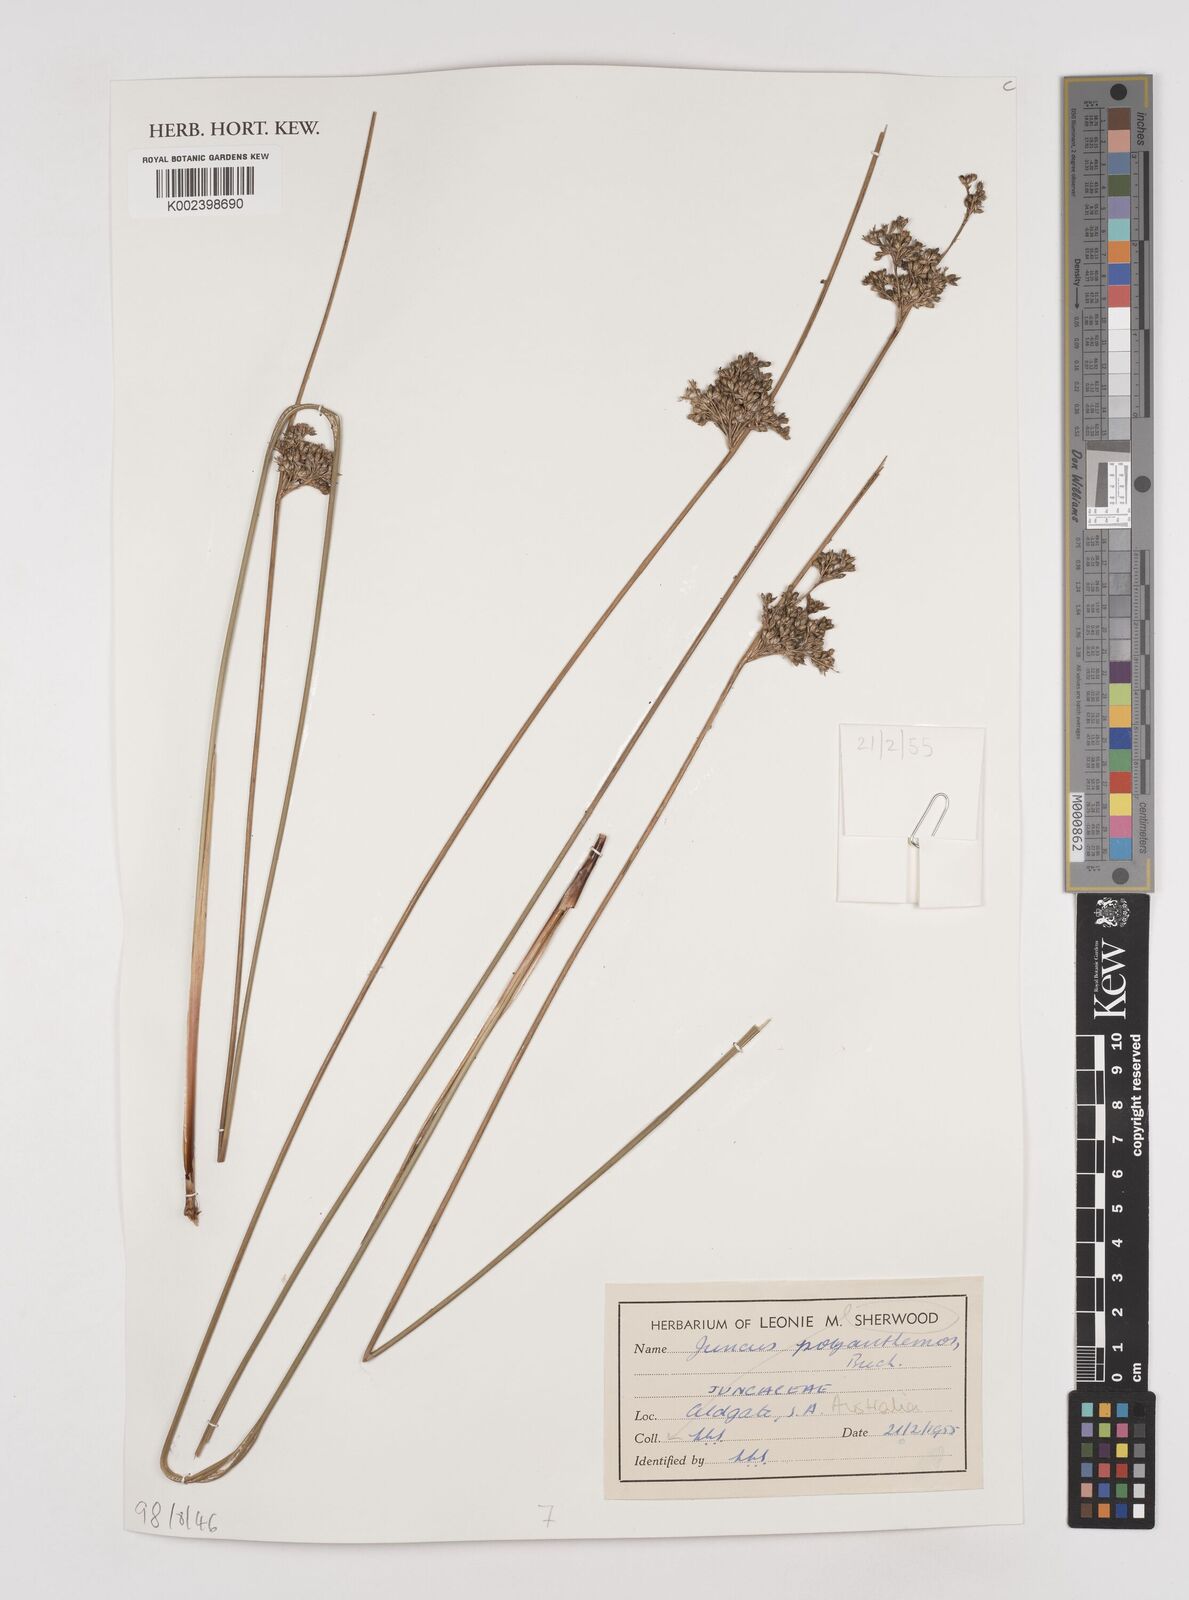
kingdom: Plantae
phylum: Tracheophyta
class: Liliopsida
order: Poales
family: Juncaceae
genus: Juncus
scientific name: Juncus
